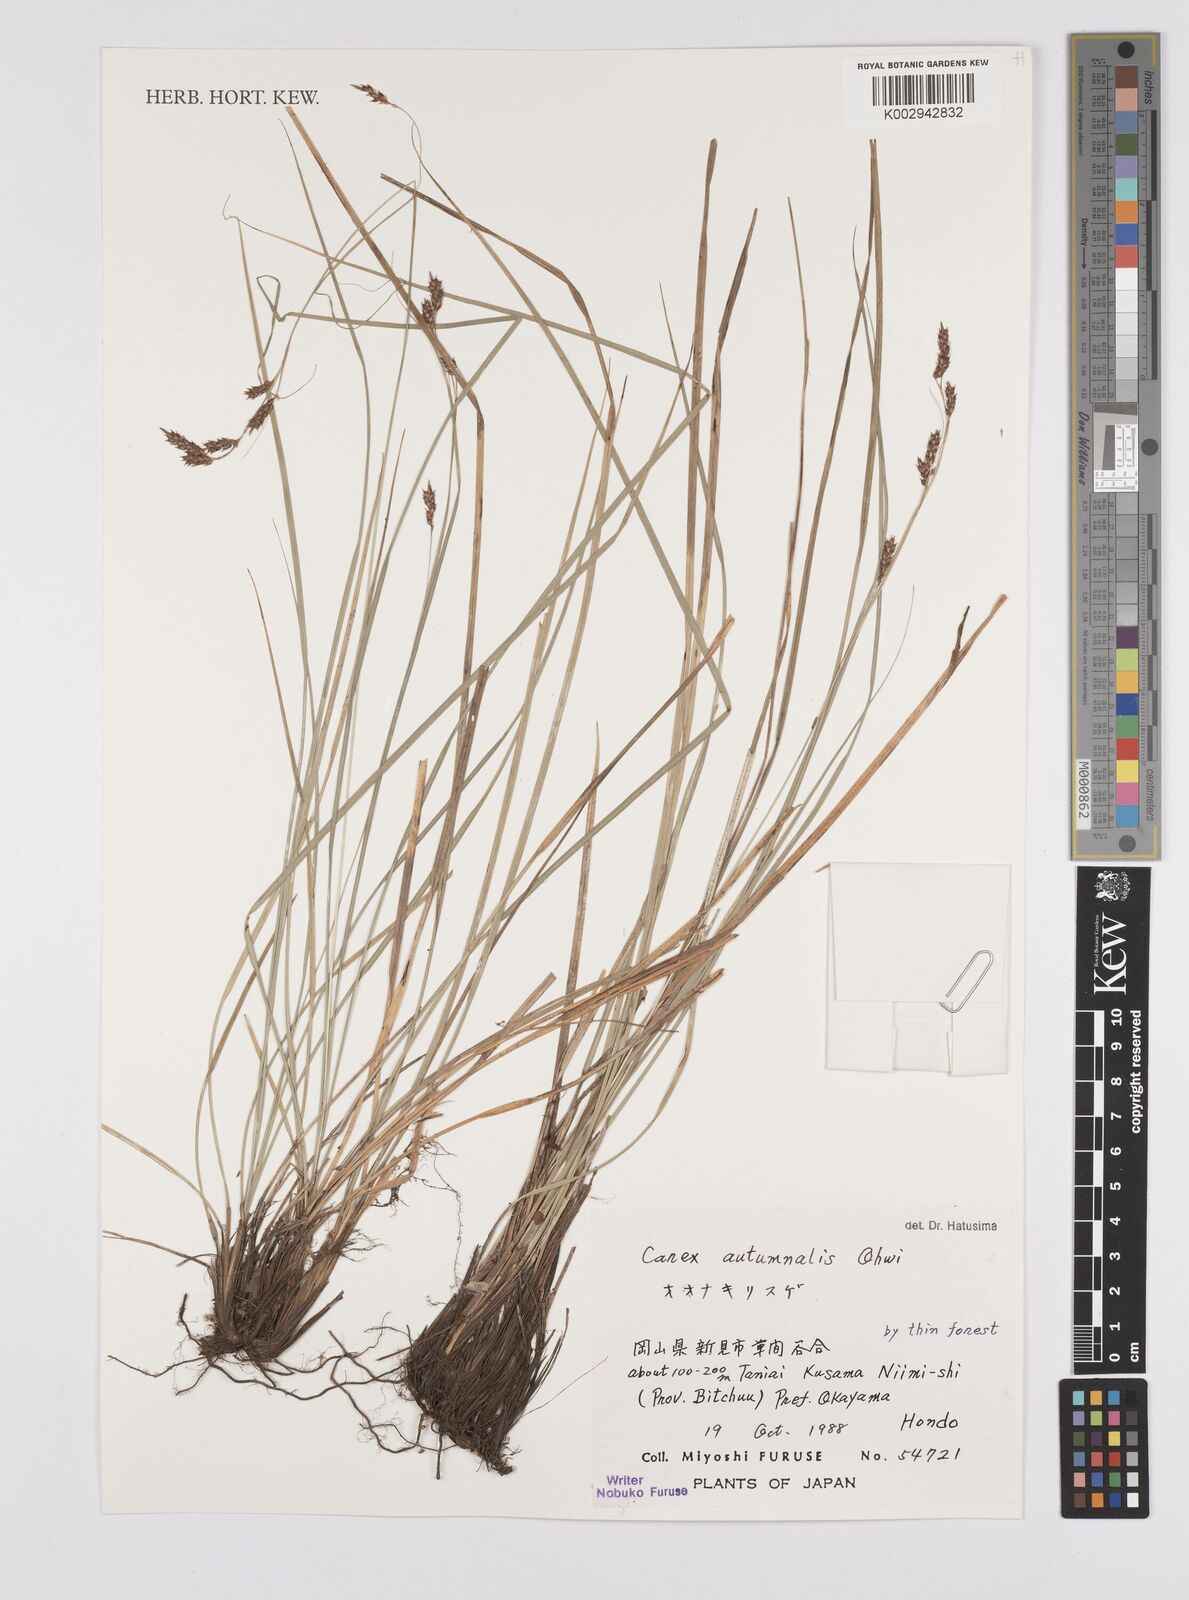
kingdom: Plantae
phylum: Tracheophyta
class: Liliopsida
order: Poales
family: Cyperaceae
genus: Carex
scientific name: Carex autumnalis
